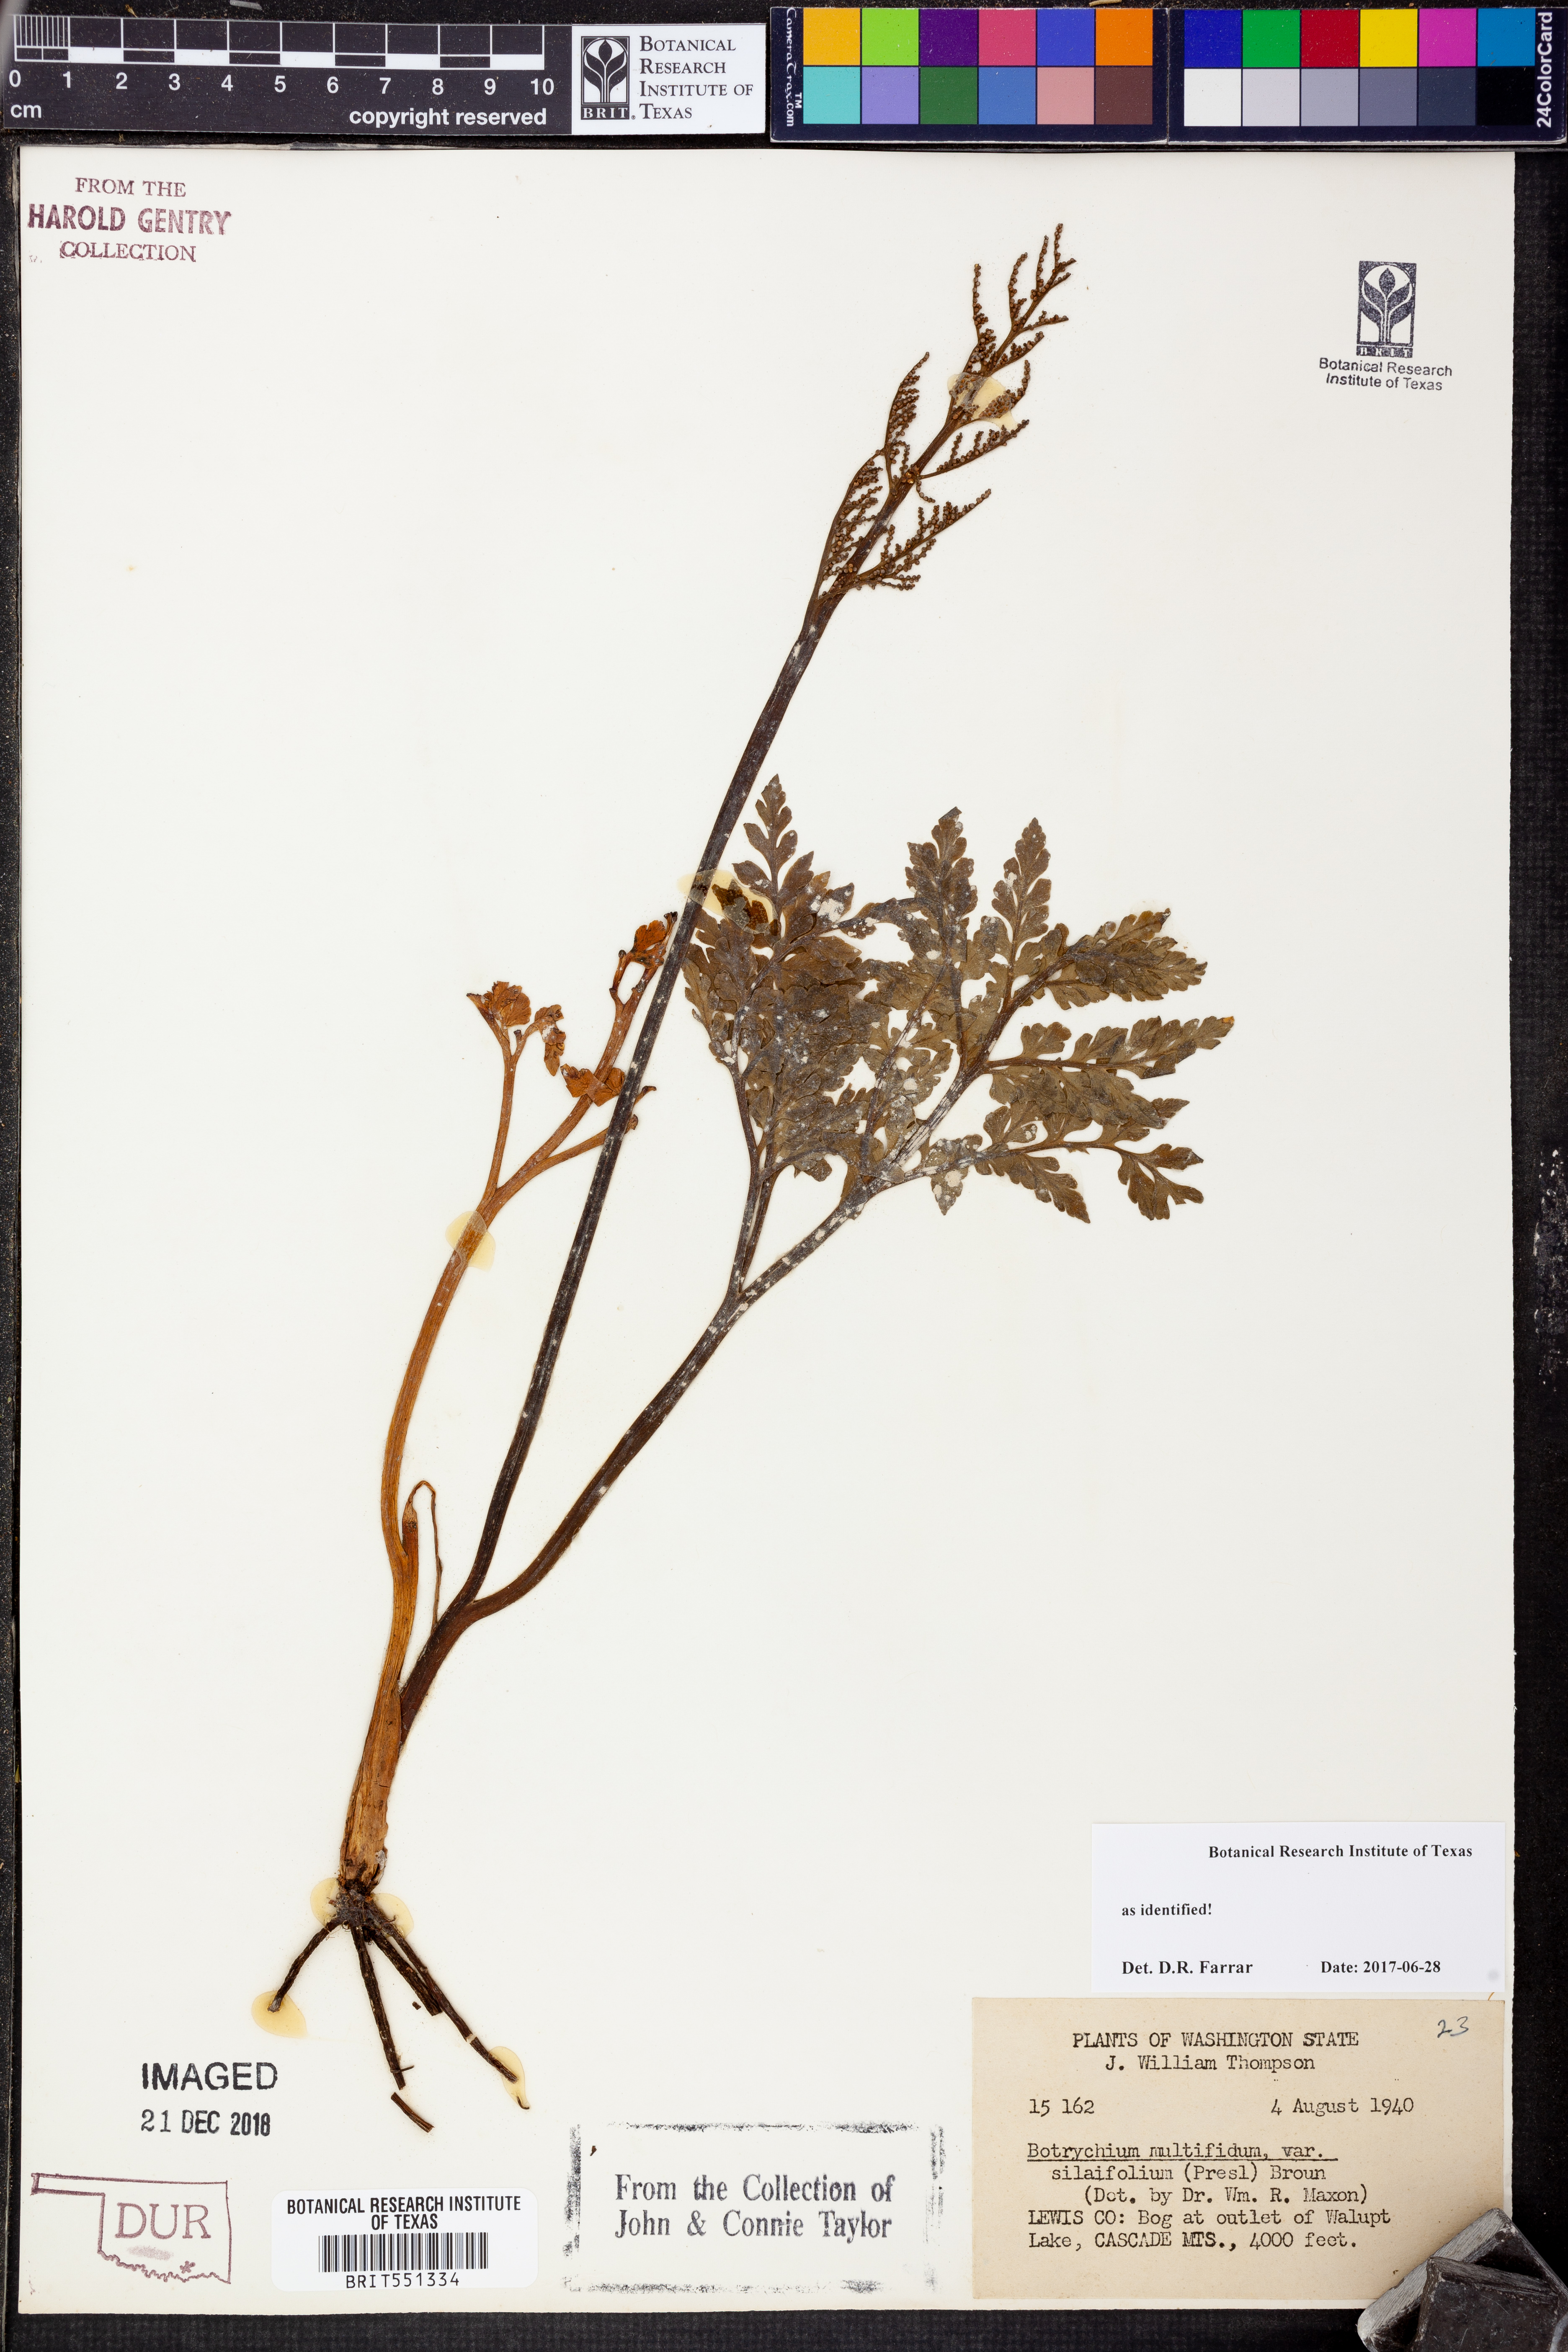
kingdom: Plantae
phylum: Tracheophyta
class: Polypodiopsida
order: Ophioglossales
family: Ophioglossaceae
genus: Sceptridium
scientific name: Sceptridium multifidum
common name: Leathery grape fern
